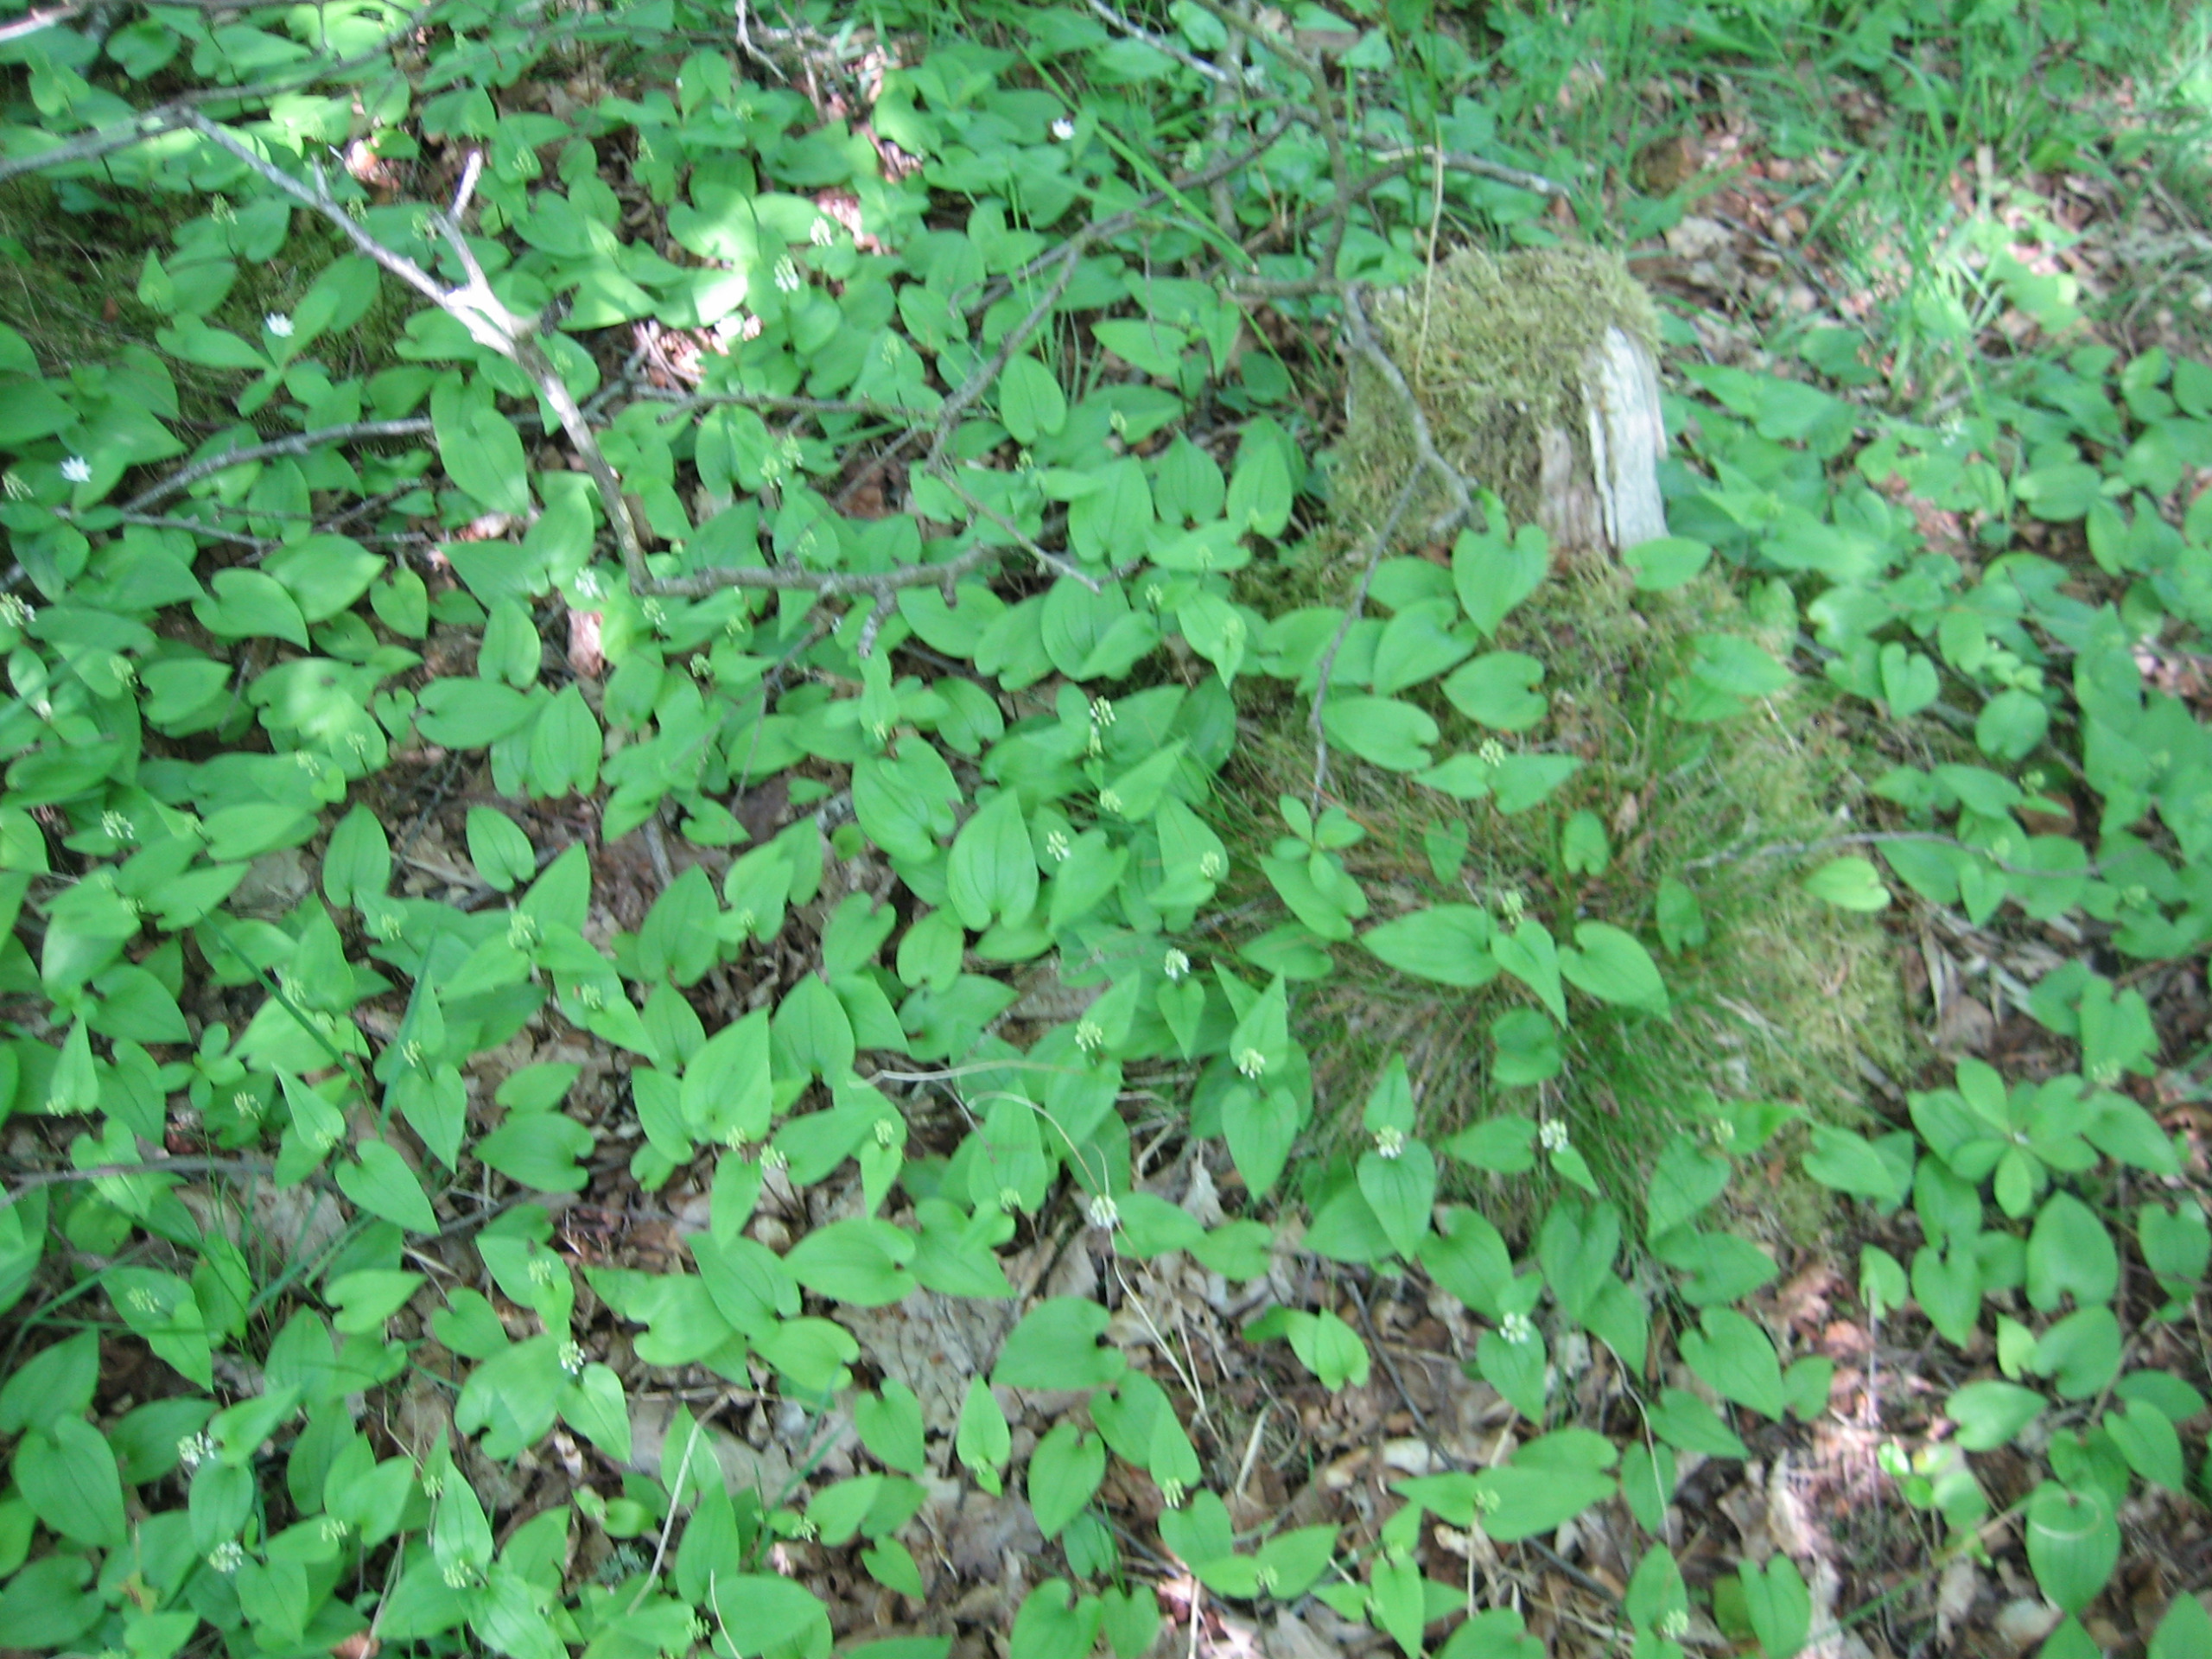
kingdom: Plantae
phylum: Tracheophyta
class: Liliopsida
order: Asparagales
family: Asparagaceae
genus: Maianthemum
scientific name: Maianthemum bifolium
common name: Majblomst
